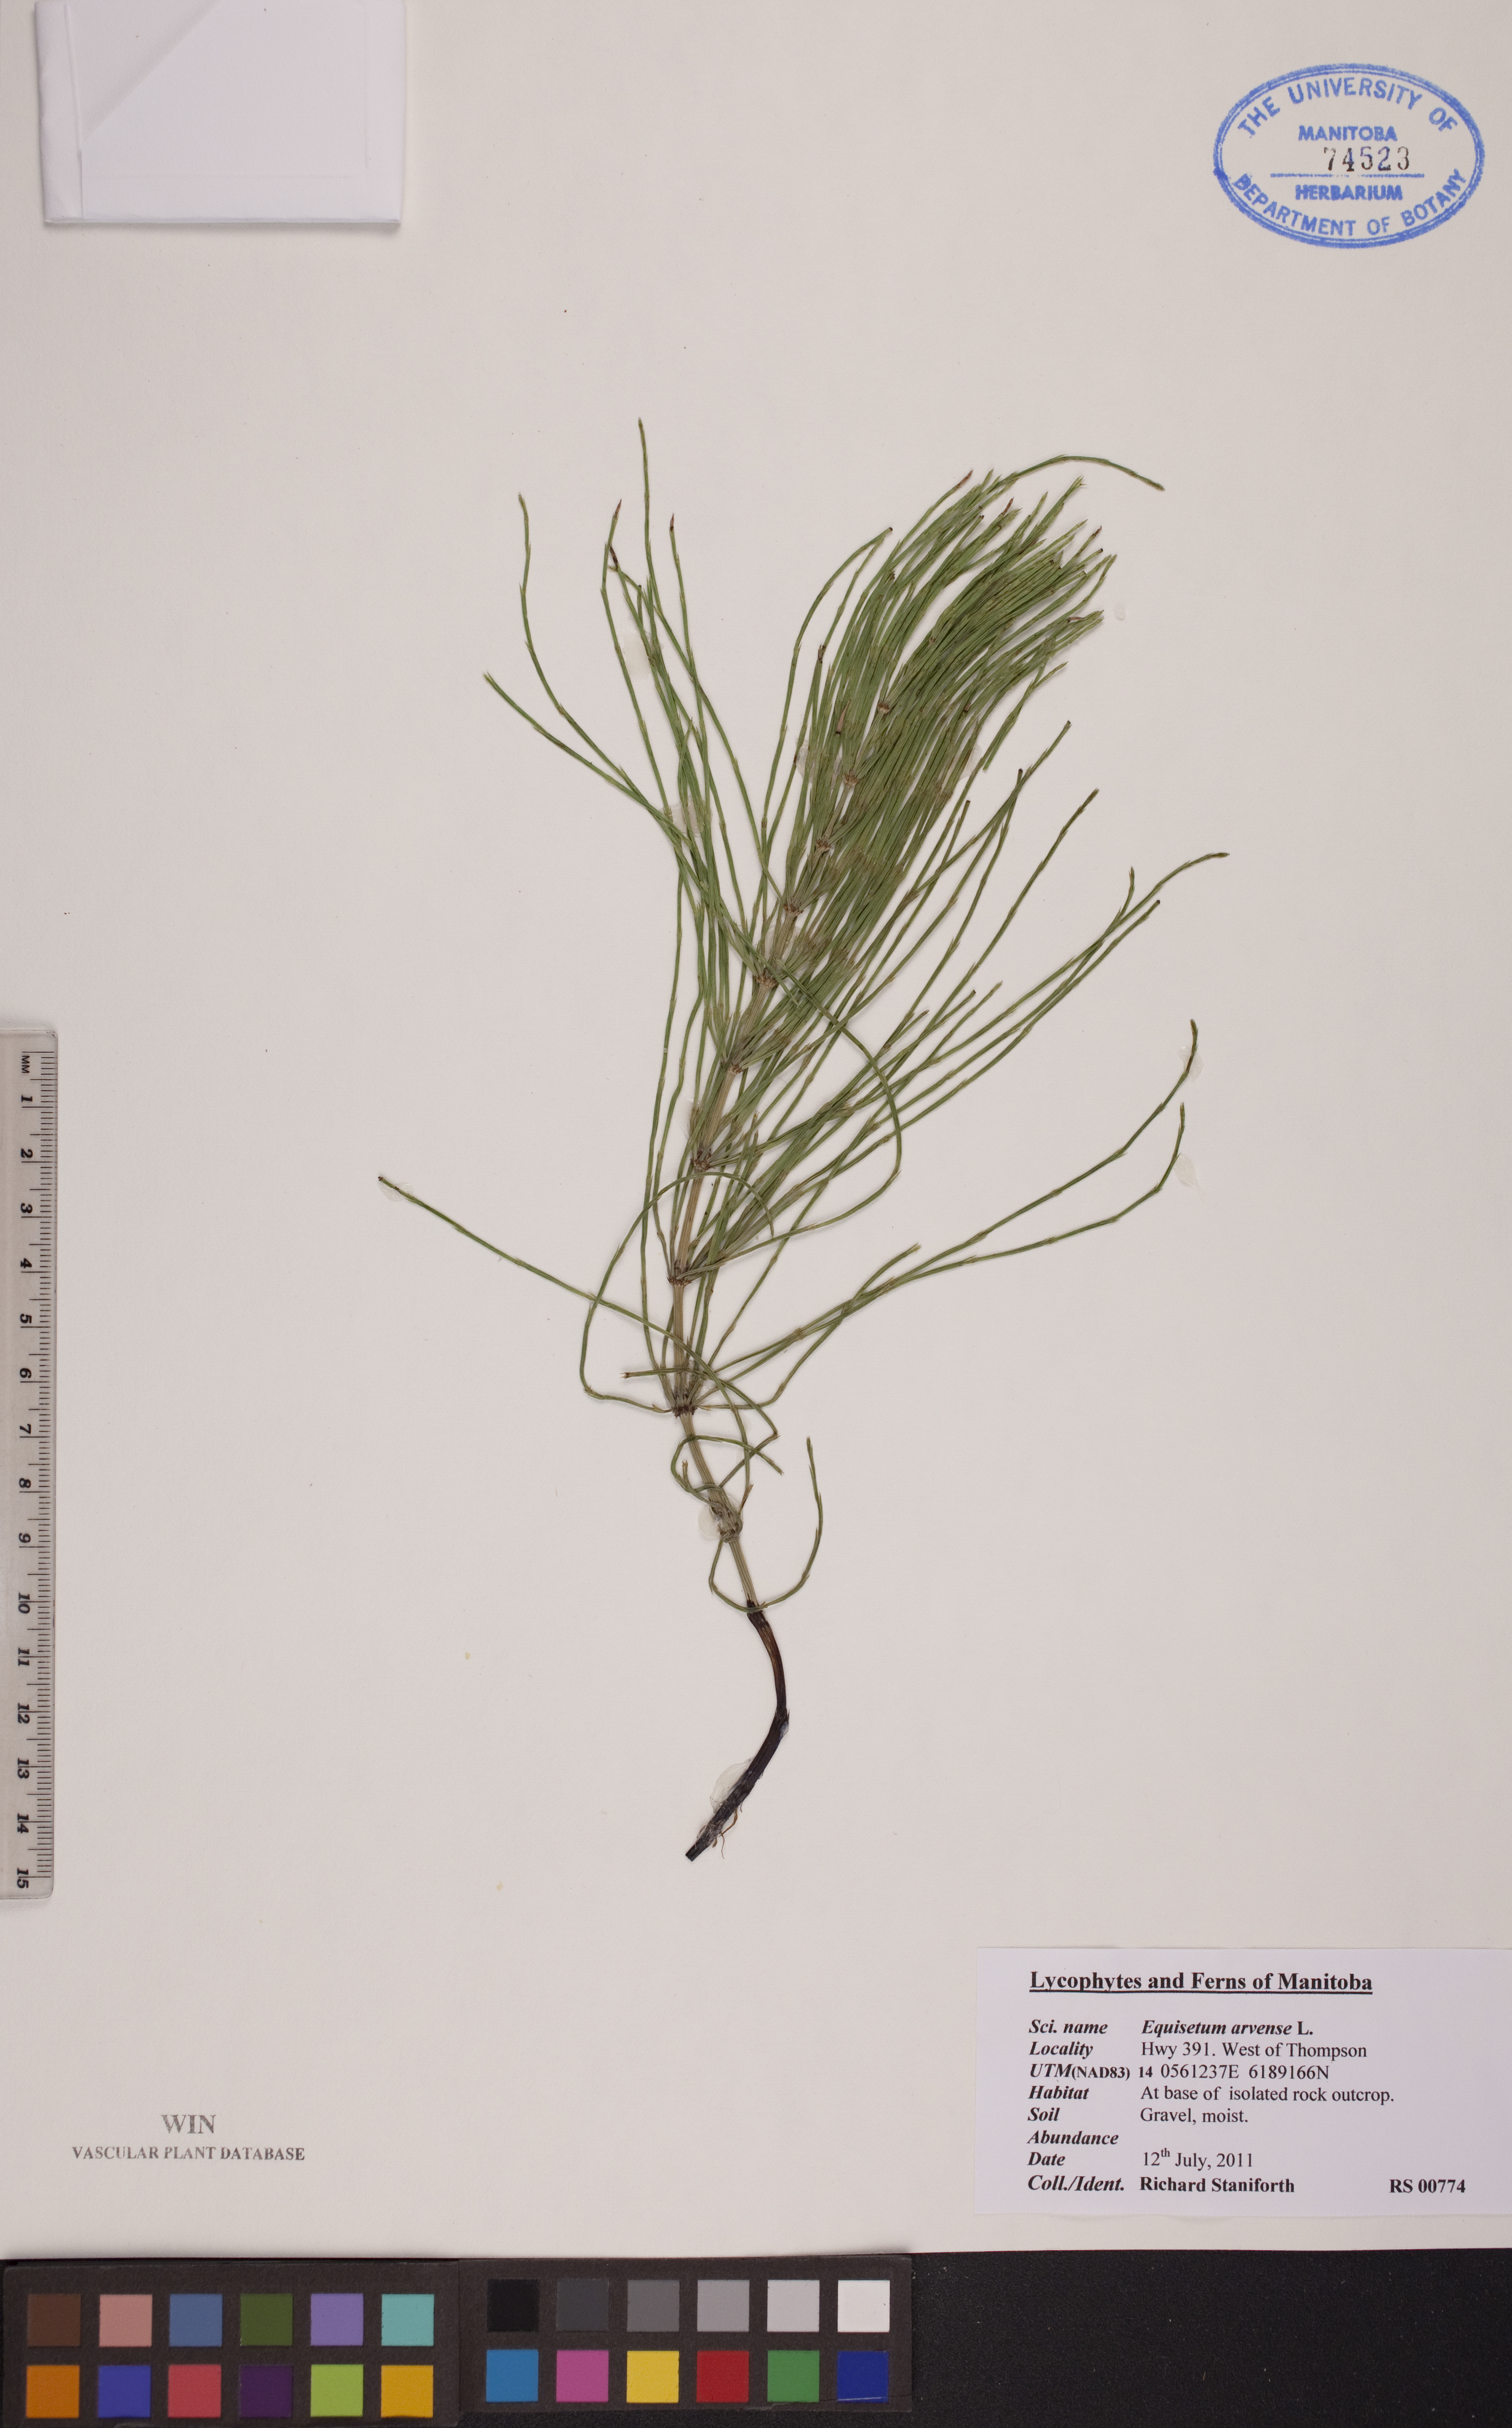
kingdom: Plantae
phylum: Tracheophyta
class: Polypodiopsida
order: Equisetales
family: Equisetaceae
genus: Equisetum
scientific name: Equisetum arvense
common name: Field horsetail
